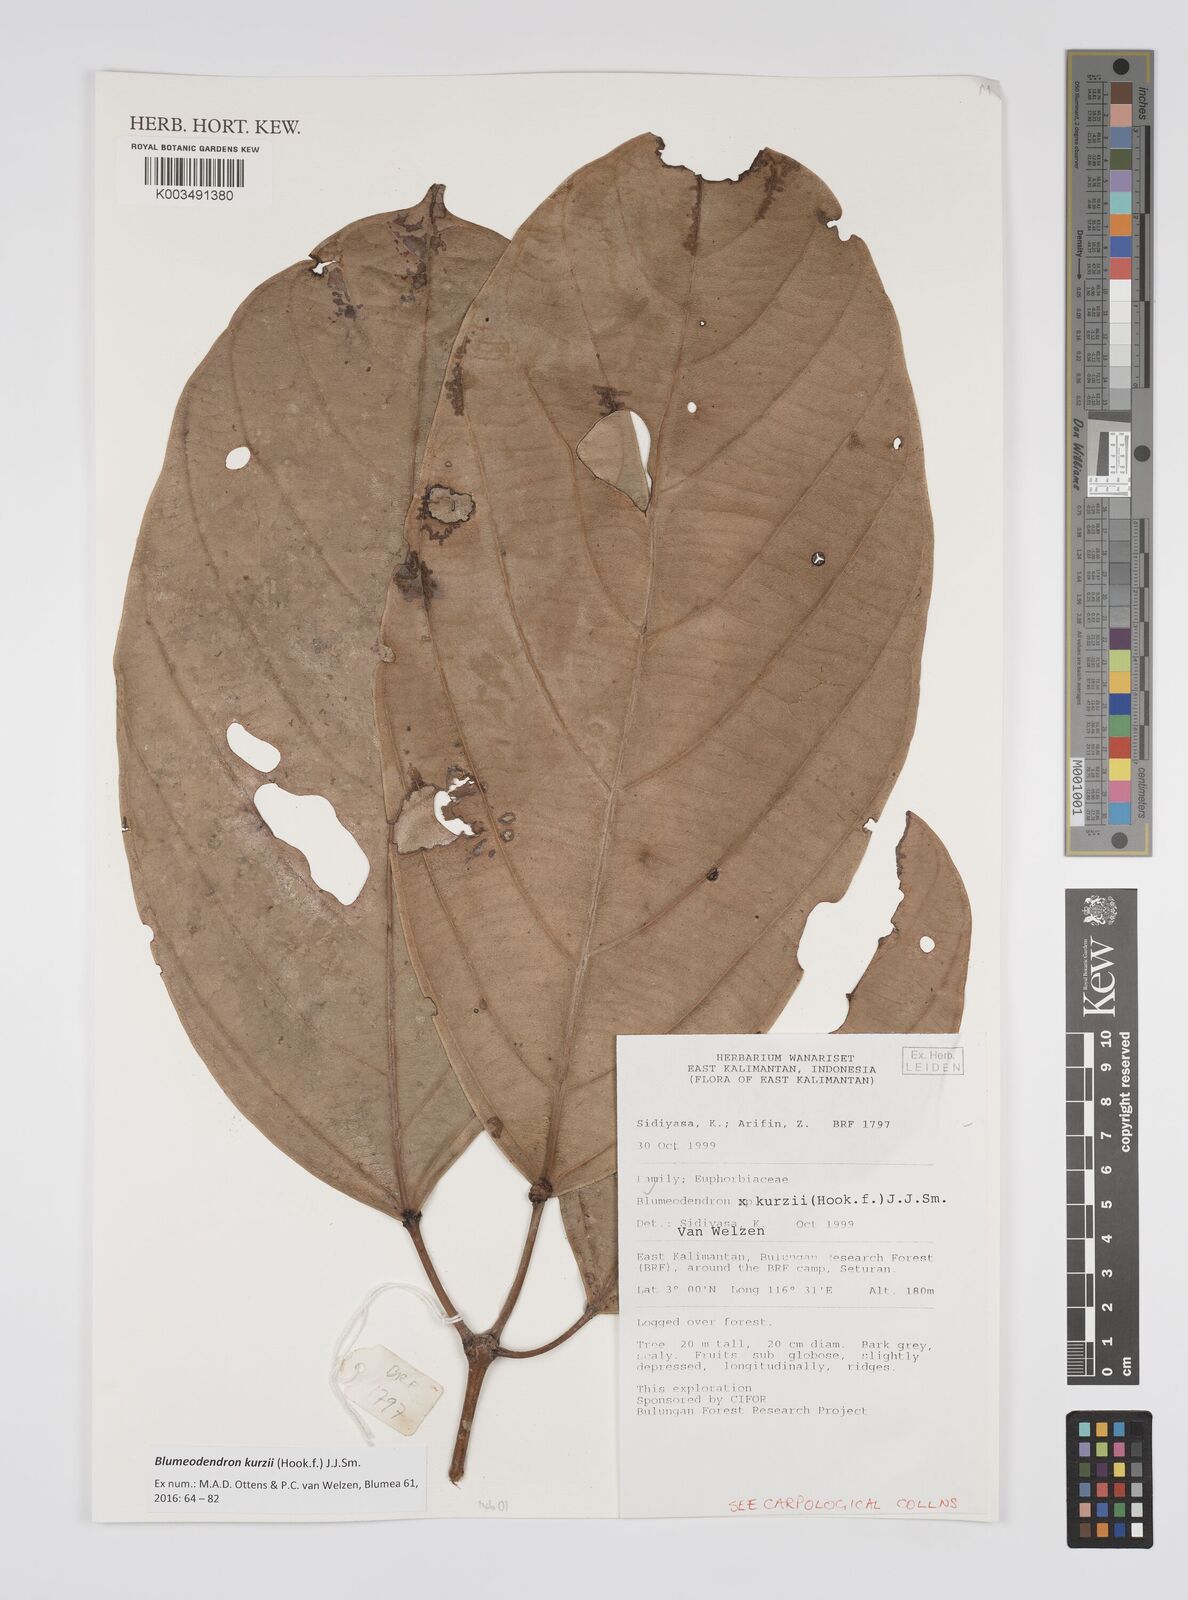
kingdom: Plantae
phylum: Tracheophyta
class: Magnoliopsida
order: Malpighiales
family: Euphorbiaceae
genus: Blumeodendron
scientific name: Blumeodendron kurzii
